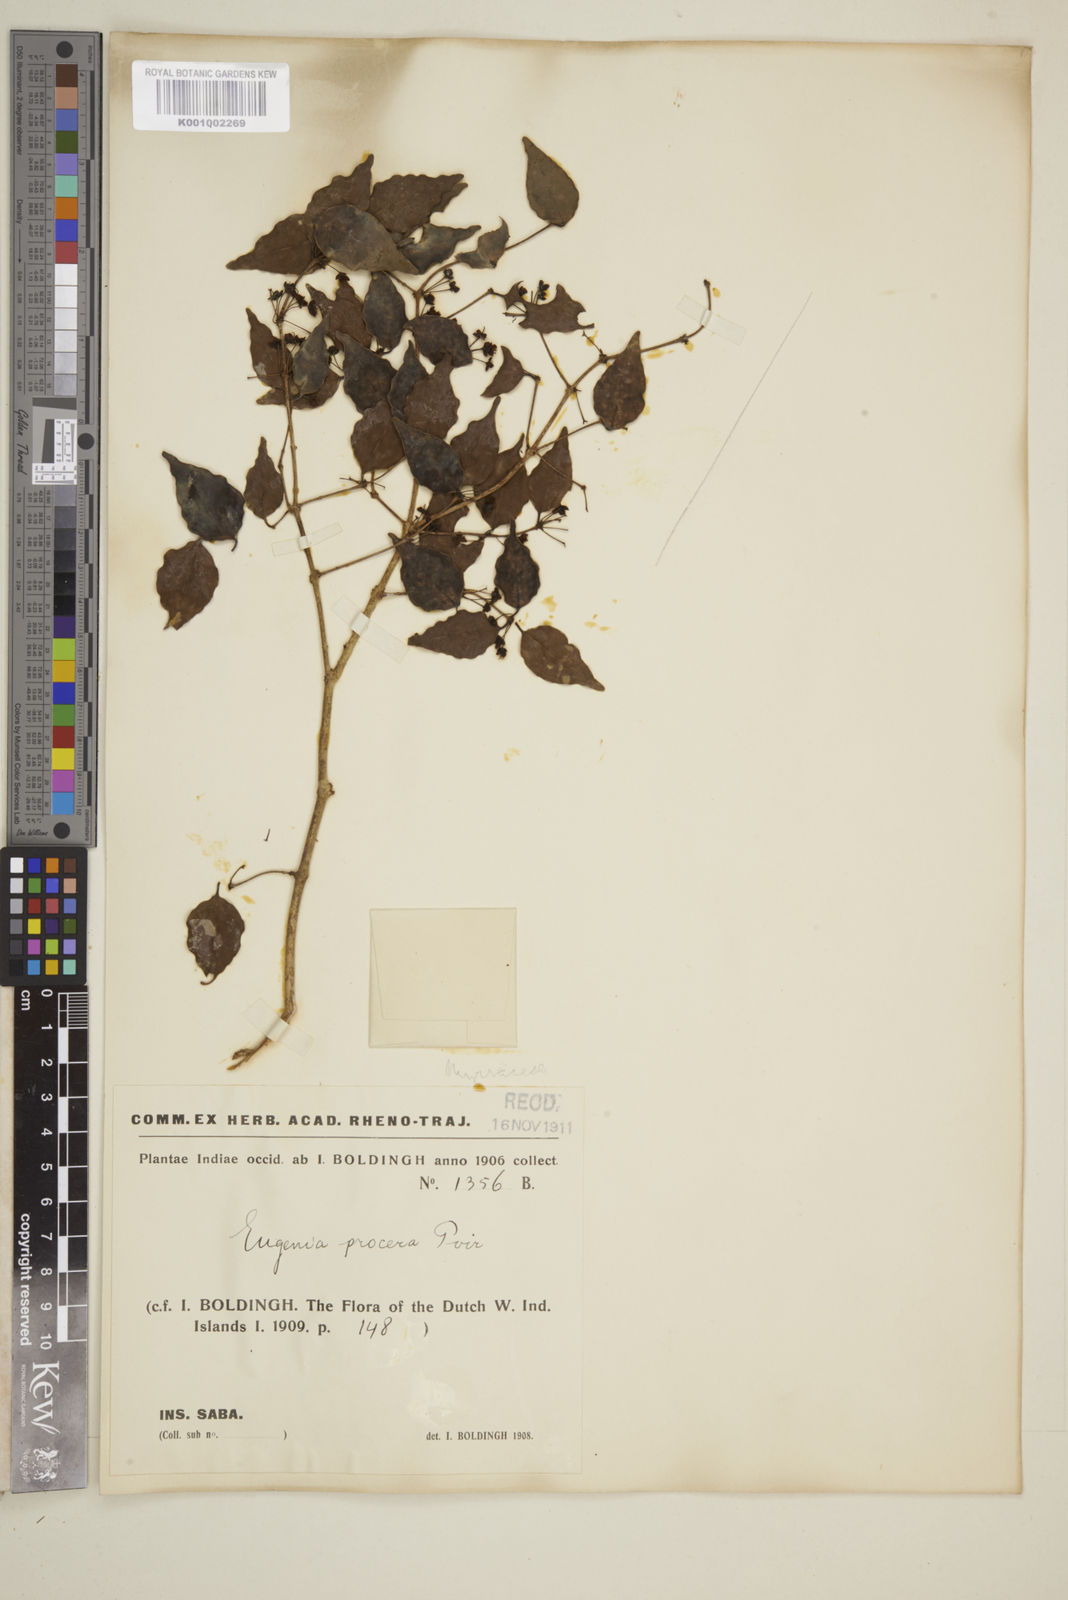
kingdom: Plantae
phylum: Tracheophyta
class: Magnoliopsida
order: Myrtales
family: Myrtaceae
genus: Eugenia
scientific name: Eugenia procera
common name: Bastard blackberry
